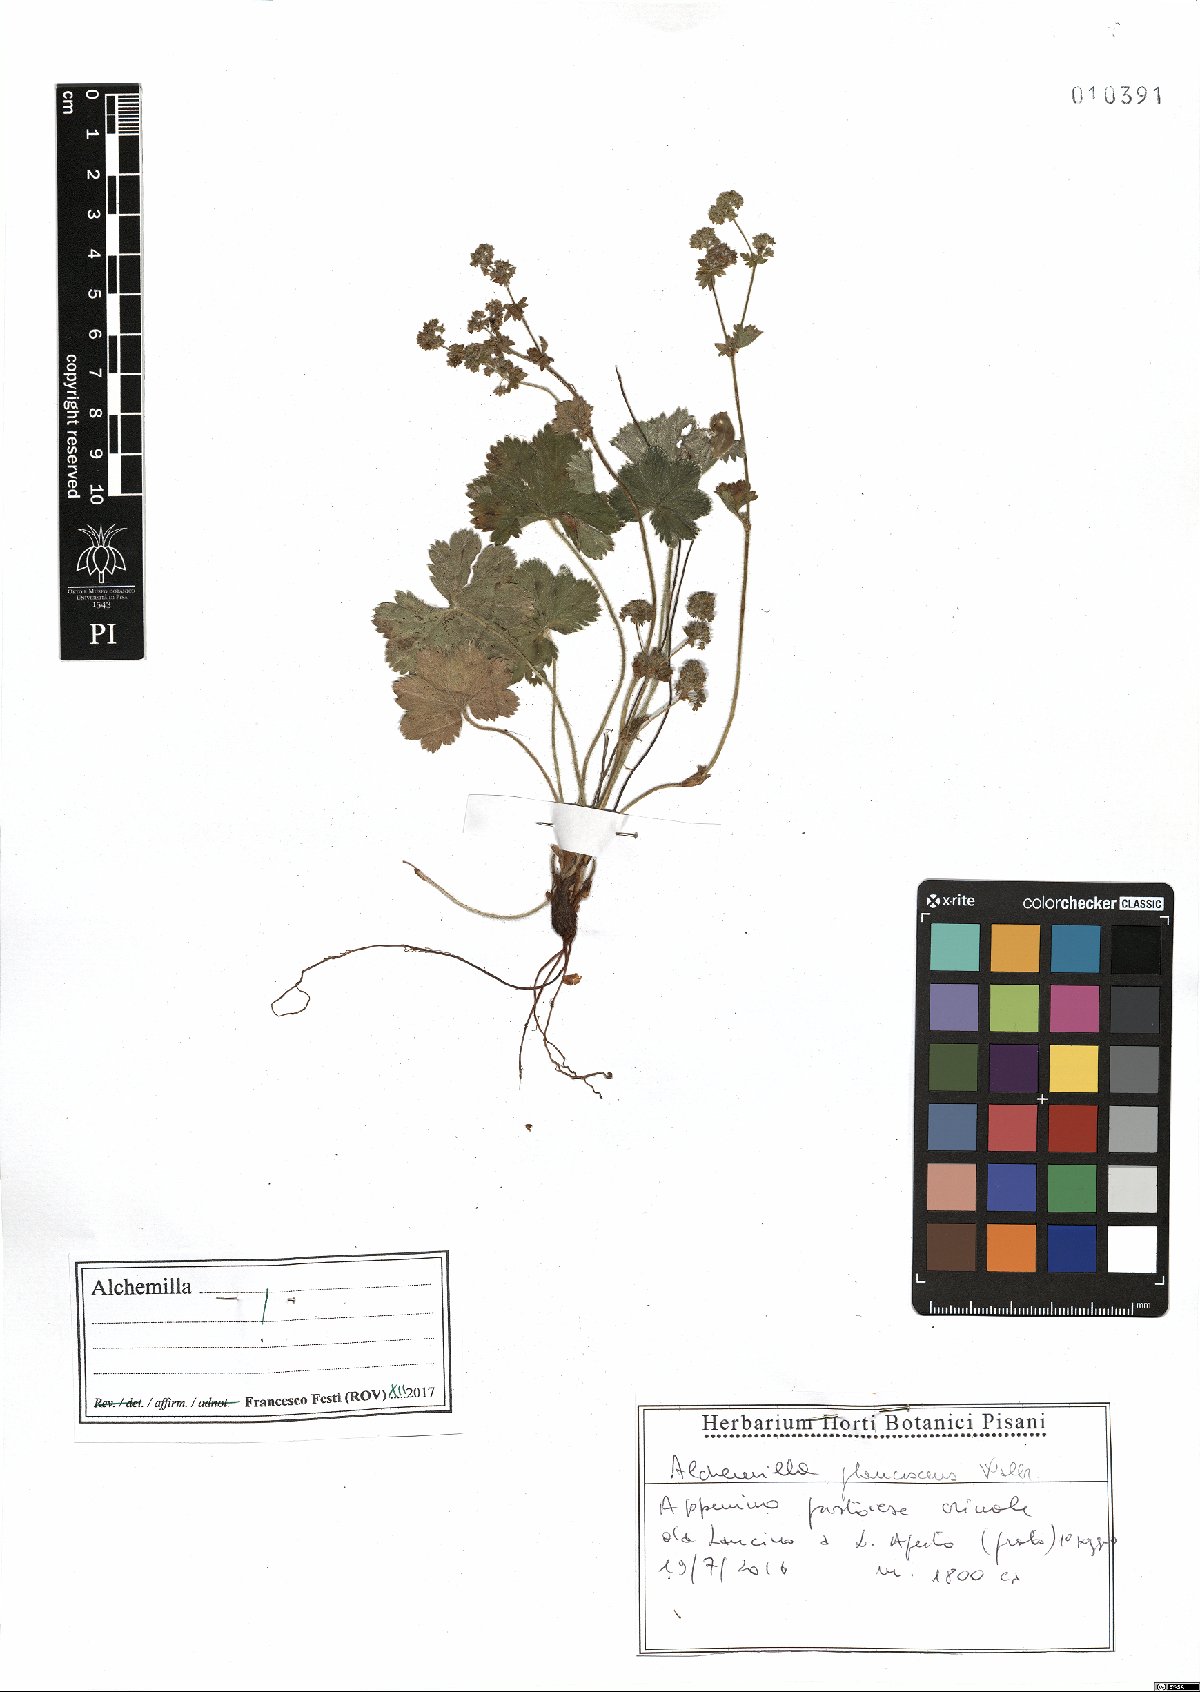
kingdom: Plantae
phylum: Tracheophyta
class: Magnoliopsida
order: Rosales
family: Rosaceae
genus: Alchemilla
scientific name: Alchemilla glaucescens
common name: Silky lady's mantle
